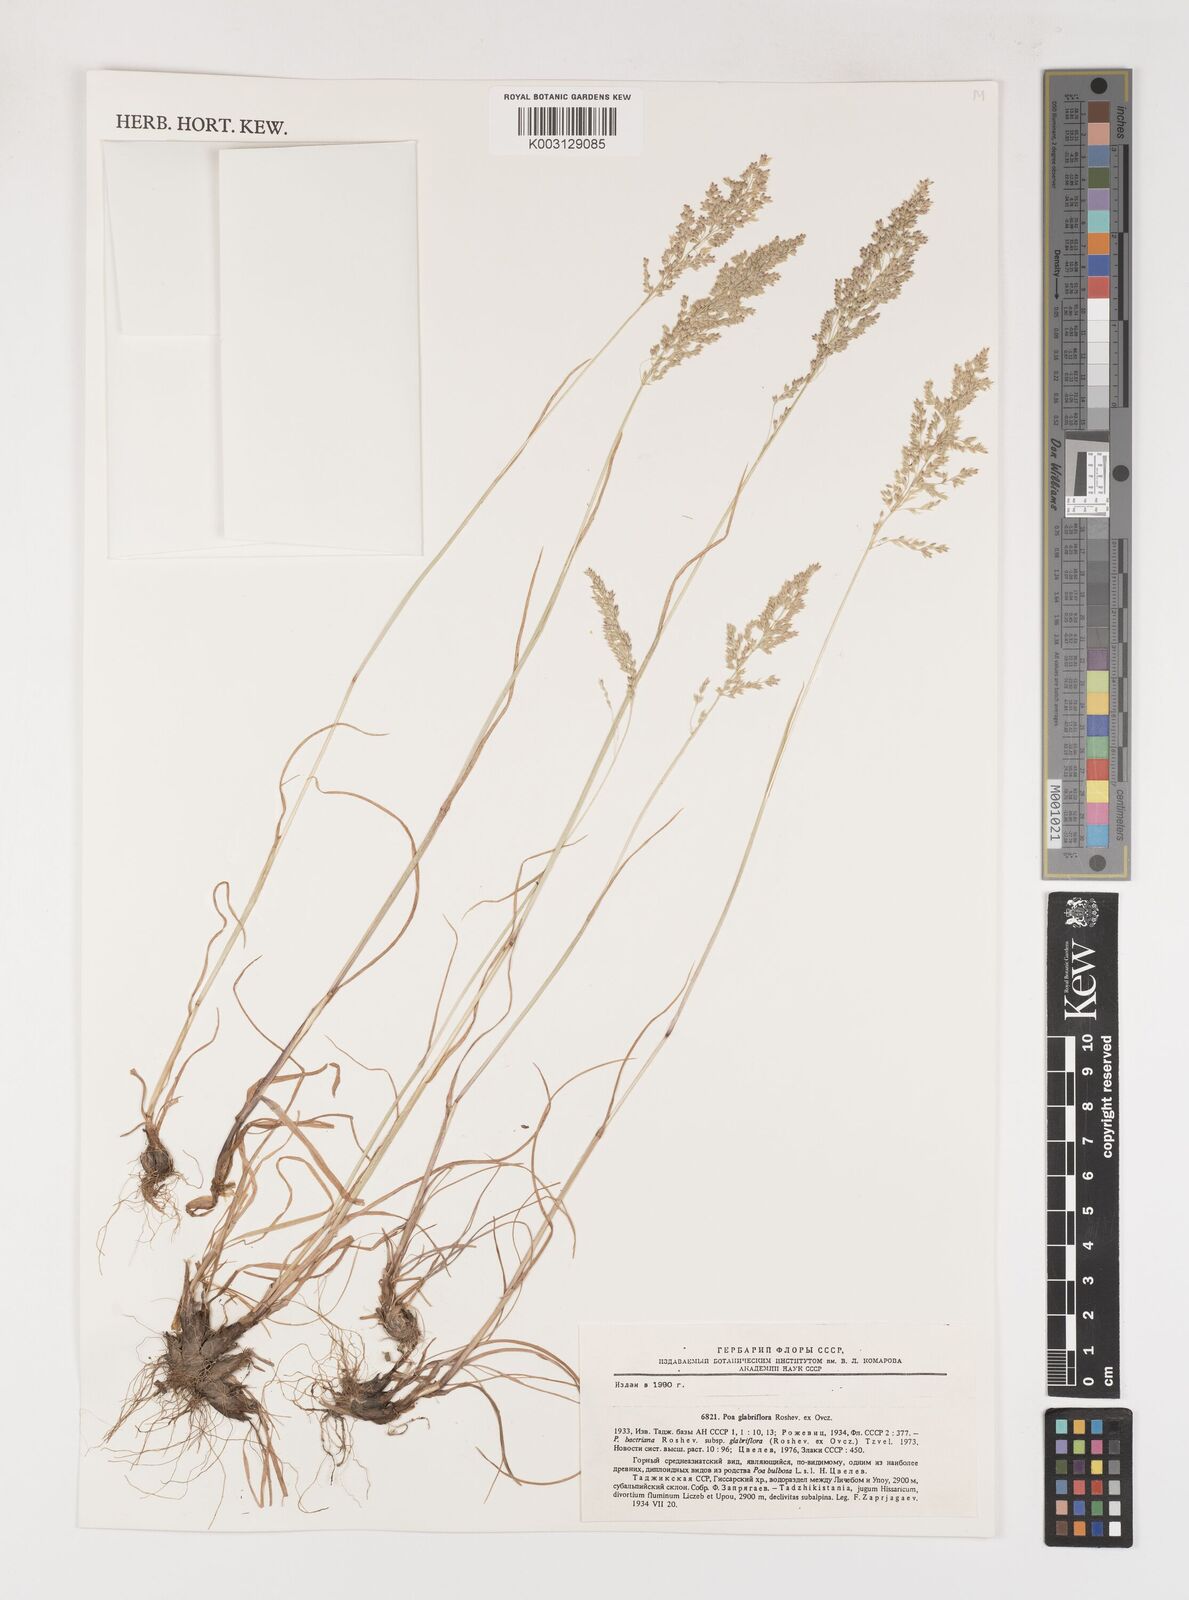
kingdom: Plantae
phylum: Tracheophyta
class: Liliopsida
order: Poales
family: Poaceae
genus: Poa
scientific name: Poa bactriana
